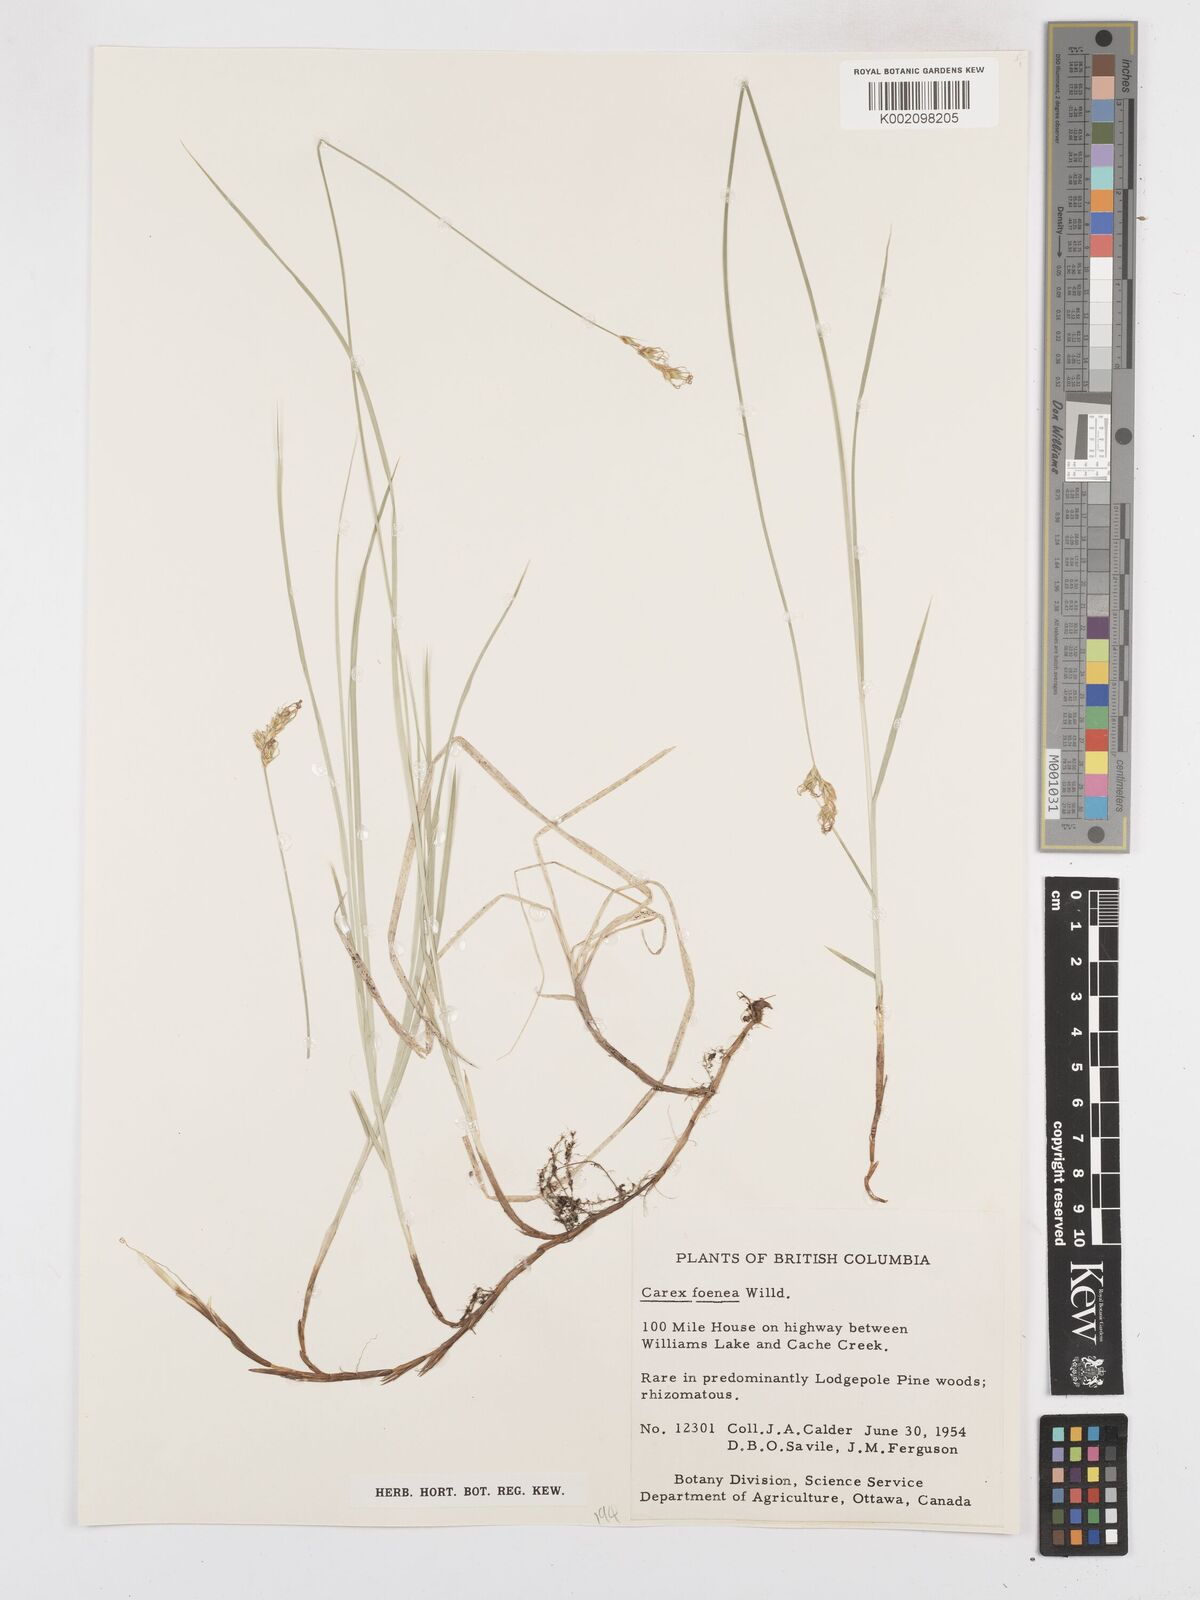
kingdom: Plantae
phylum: Tracheophyta
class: Liliopsida
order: Poales
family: Cyperaceae
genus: Carex
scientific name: Carex foenea
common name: Bronze sedge
